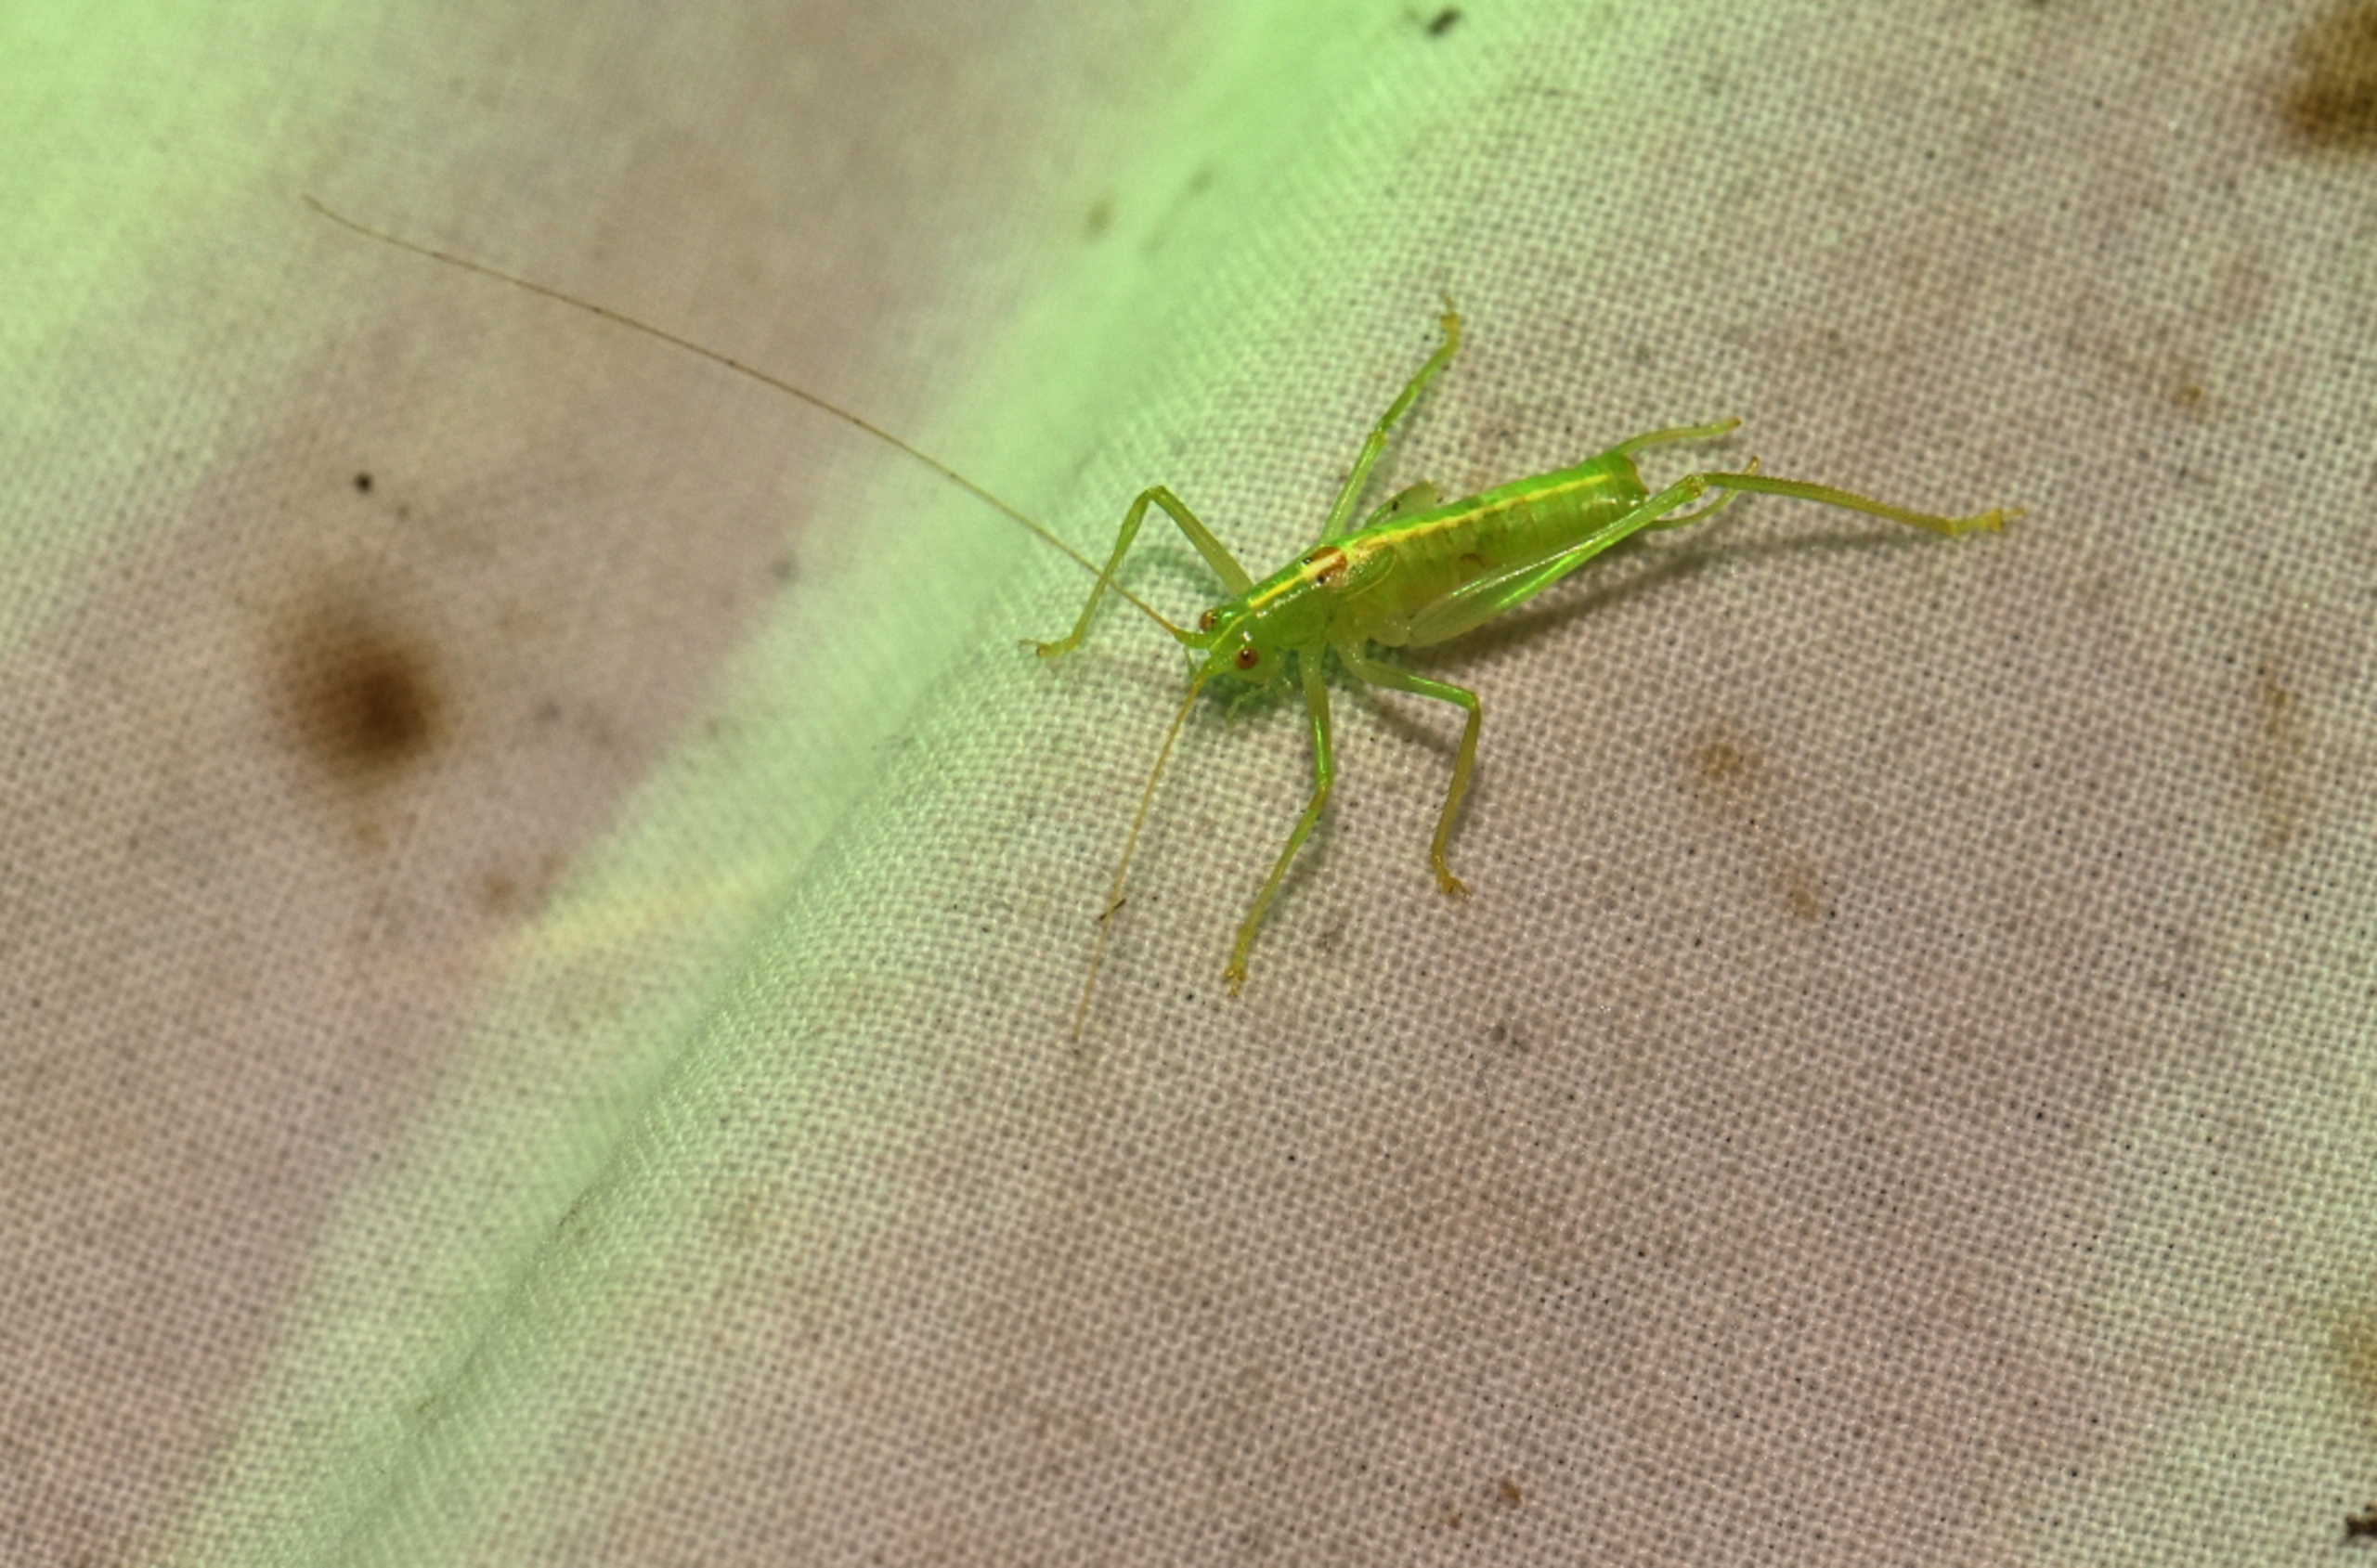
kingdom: Animalia
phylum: Arthropoda
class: Insecta
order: Orthoptera
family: Tettigoniidae
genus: Meconema
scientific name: Meconema meridionale
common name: Kortvinget egegræshoppe
